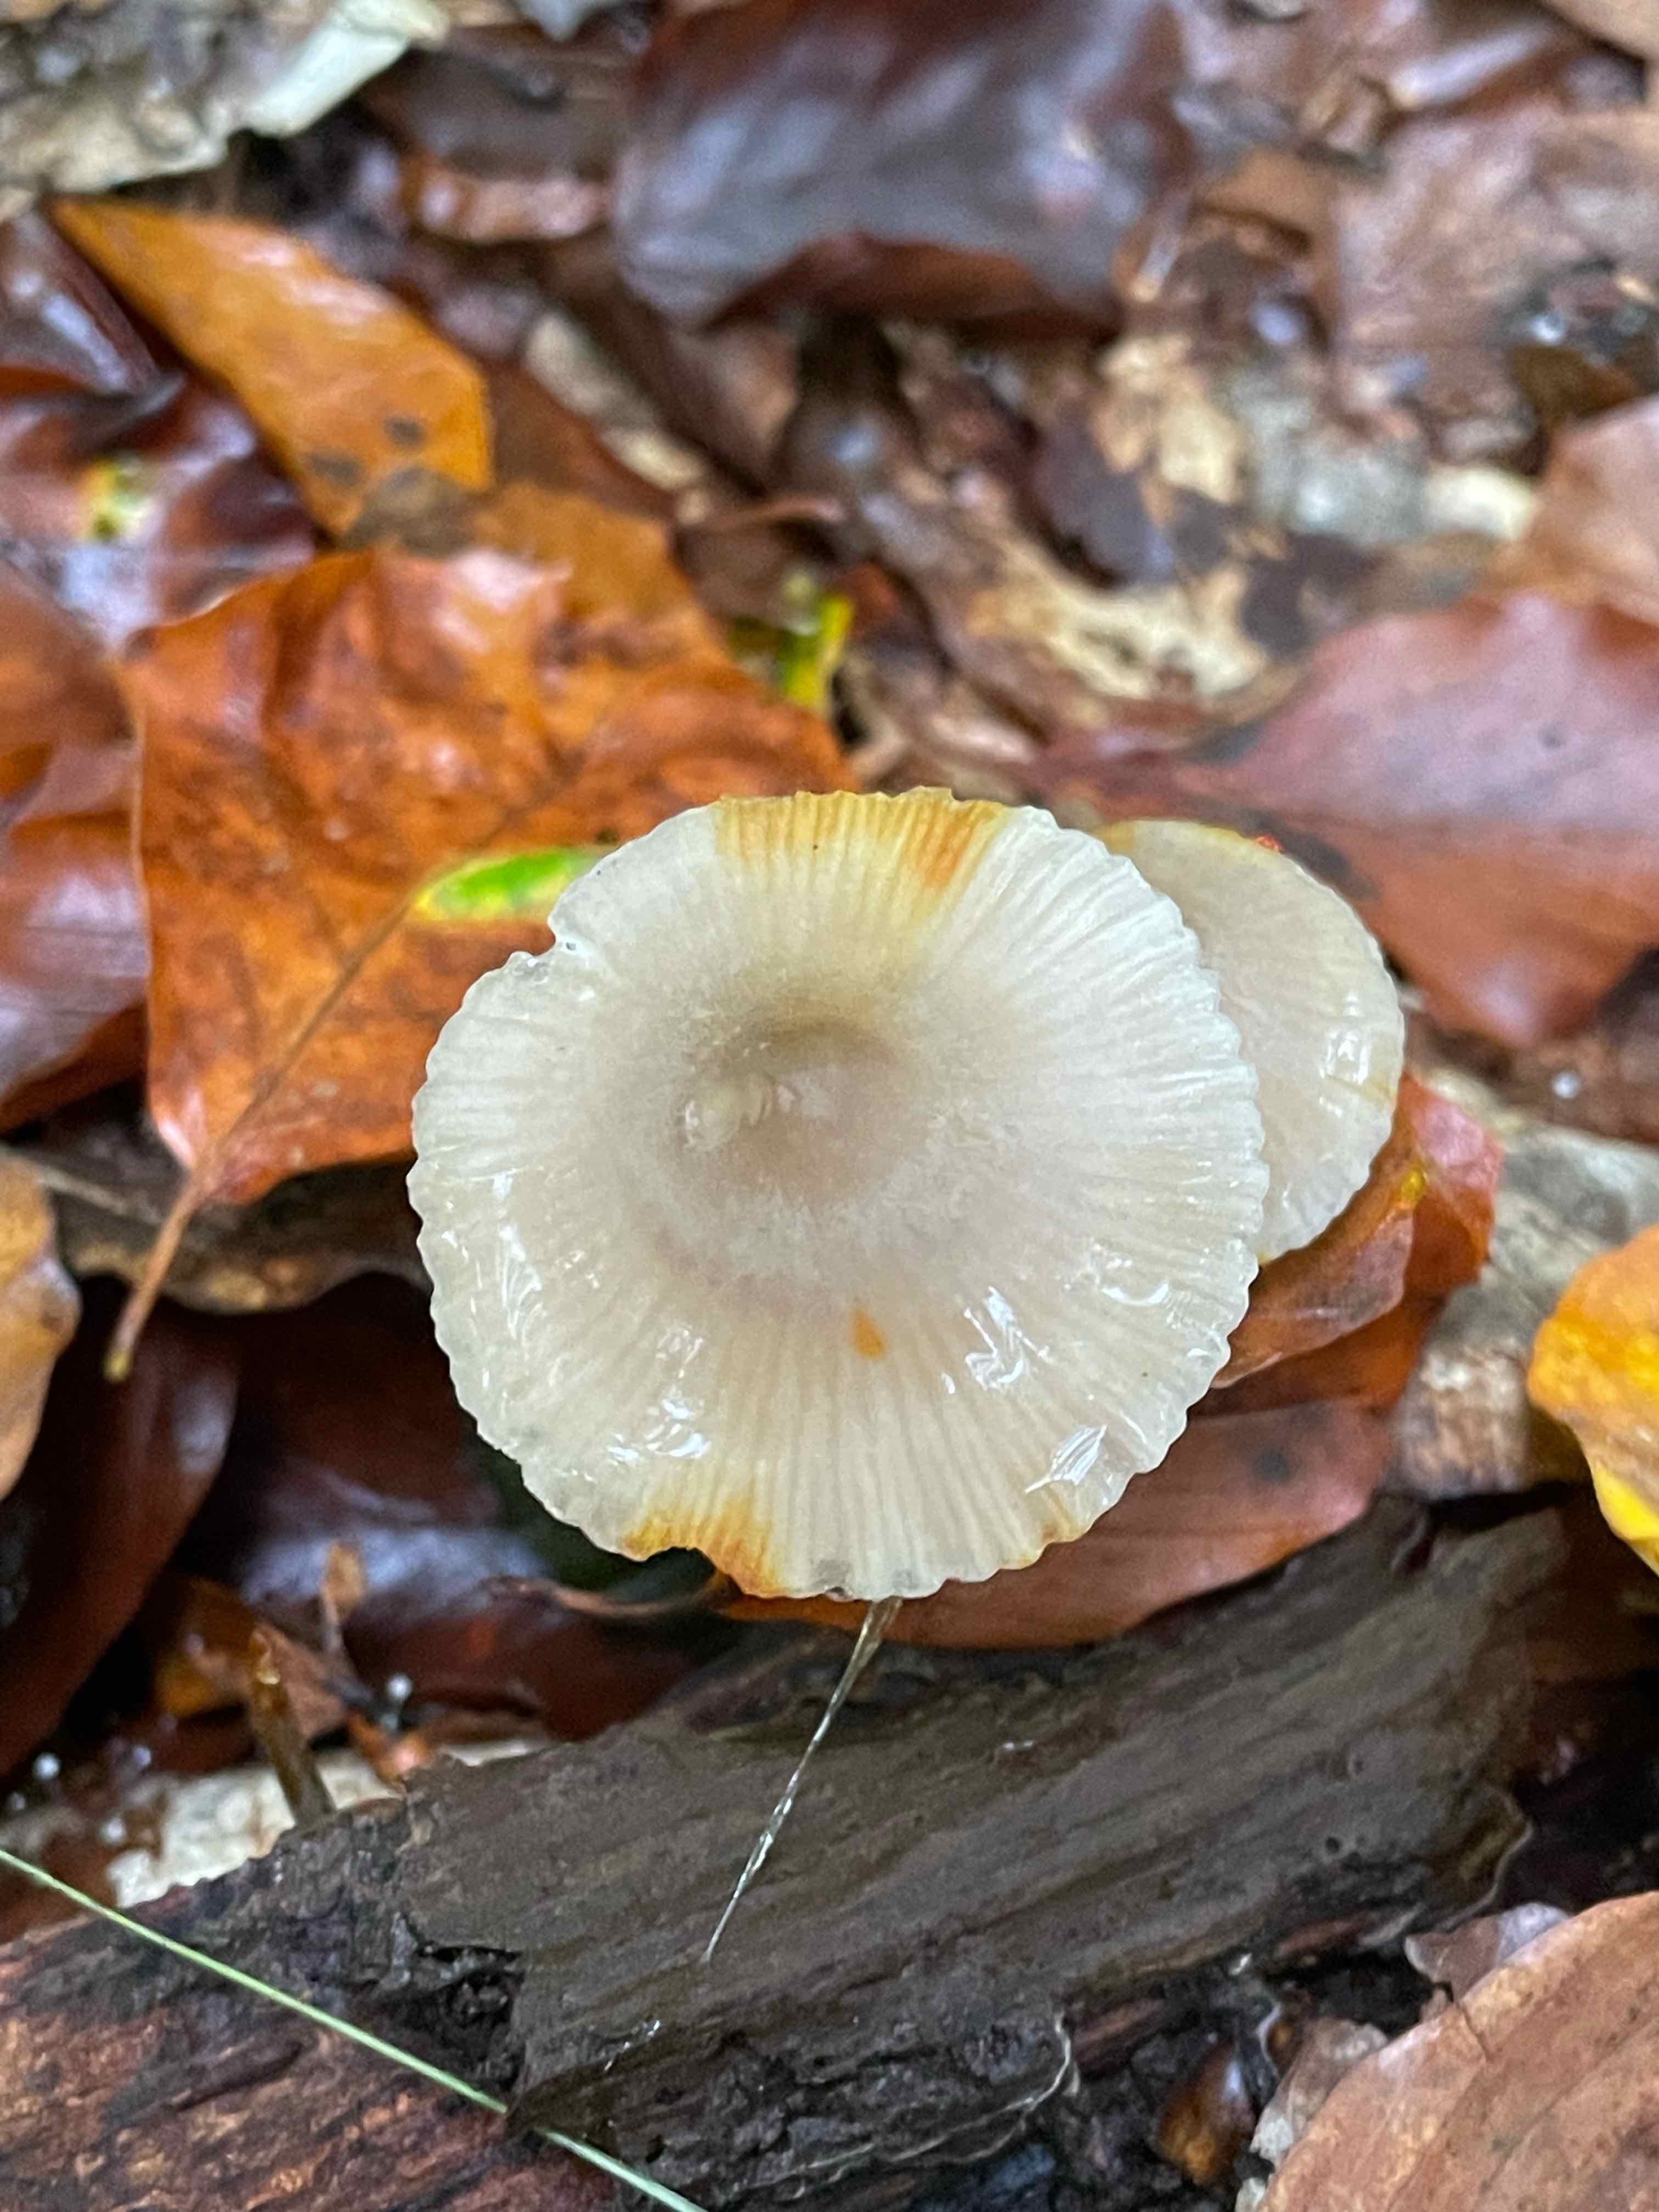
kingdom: Fungi
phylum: Basidiomycota
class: Agaricomycetes
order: Agaricales
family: Mycenaceae
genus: Mycena
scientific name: Mycena crocata
